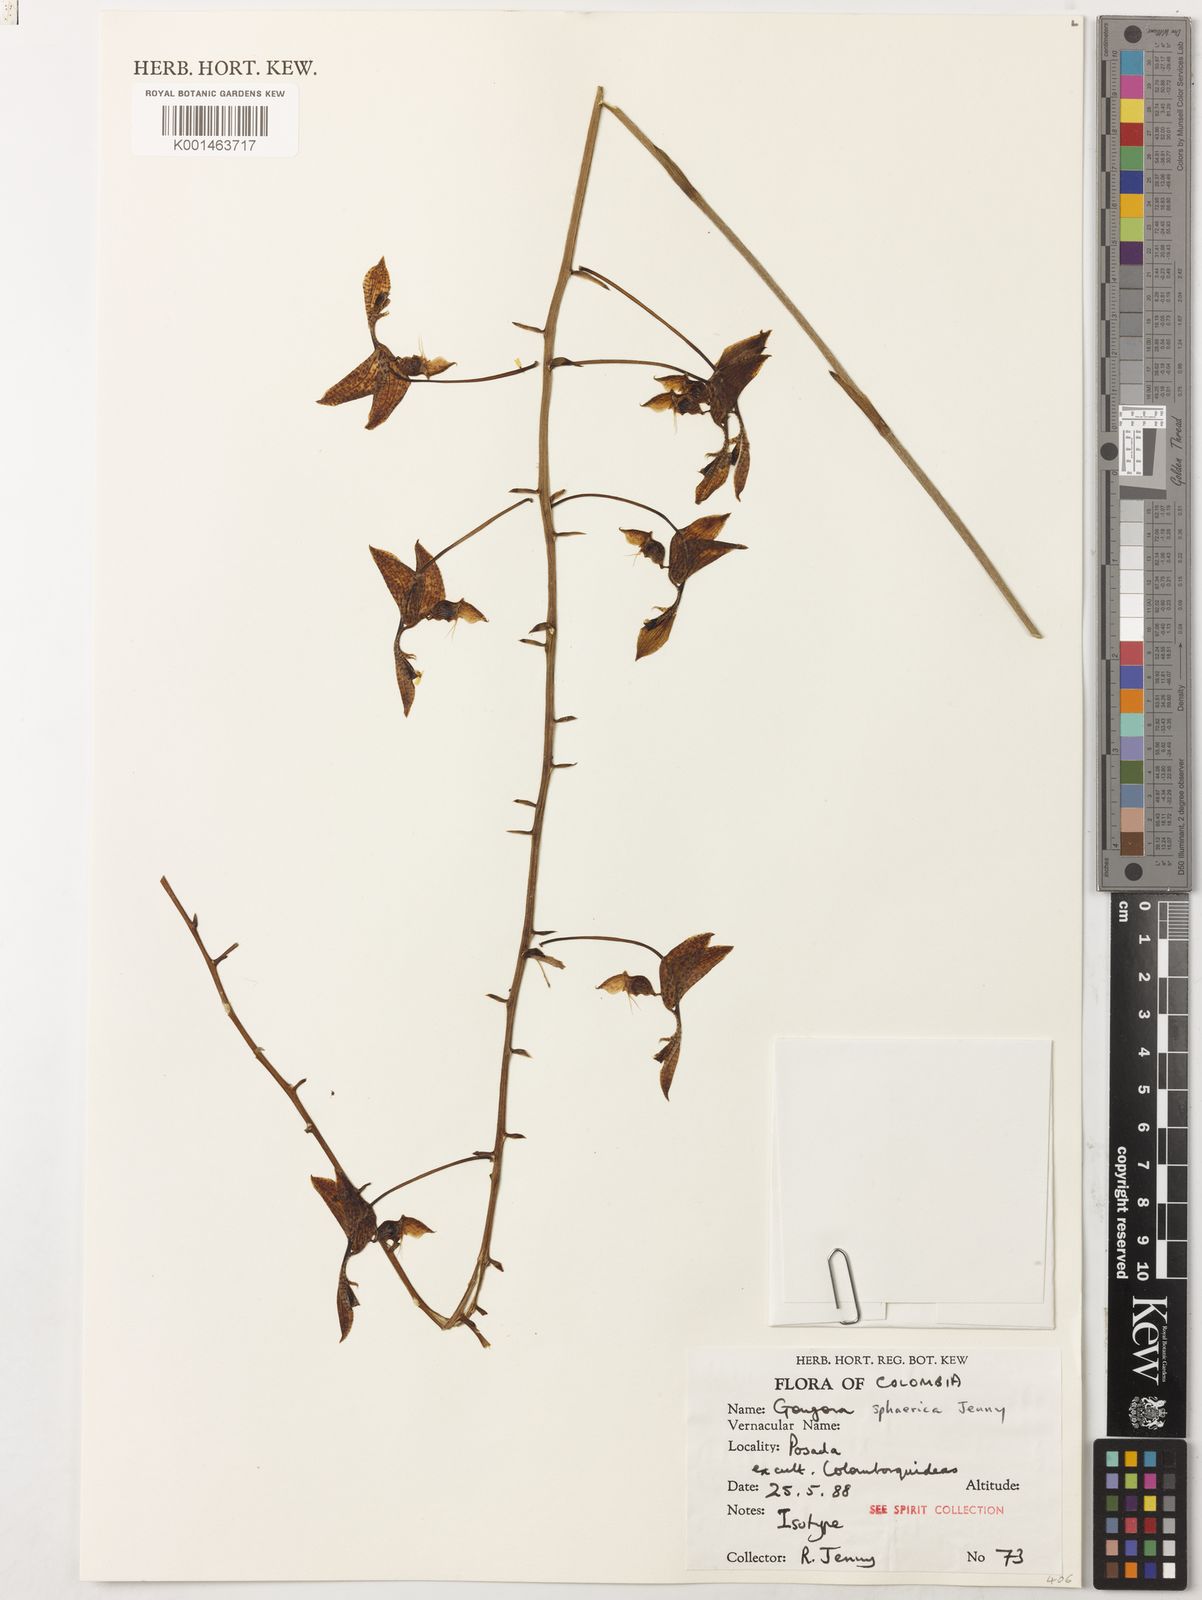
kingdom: Plantae
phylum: Tracheophyta
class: Liliopsida
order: Asparagales
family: Orchidaceae
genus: Gongora
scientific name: Gongora sphaerica
